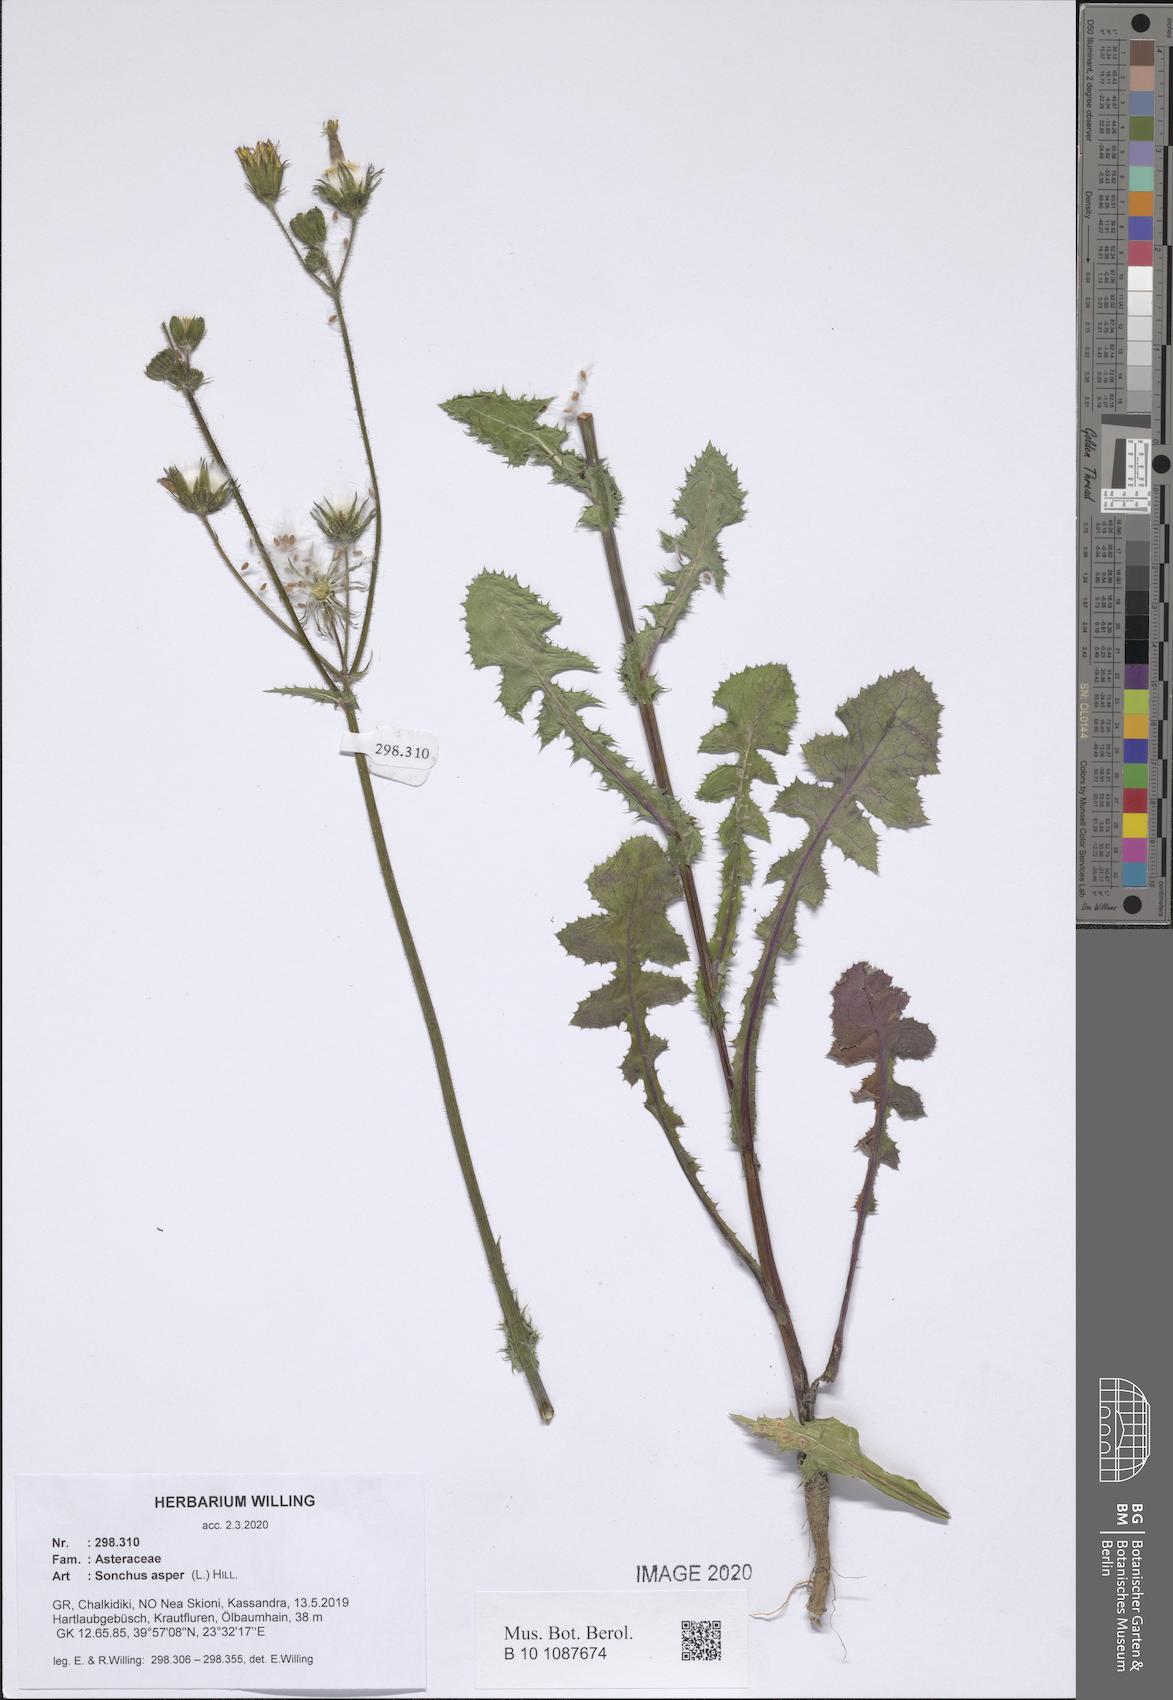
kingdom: Plantae
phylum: Tracheophyta
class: Magnoliopsida
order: Asterales
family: Asteraceae
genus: Sonchus
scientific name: Sonchus asper
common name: Prickly sow-thistle
